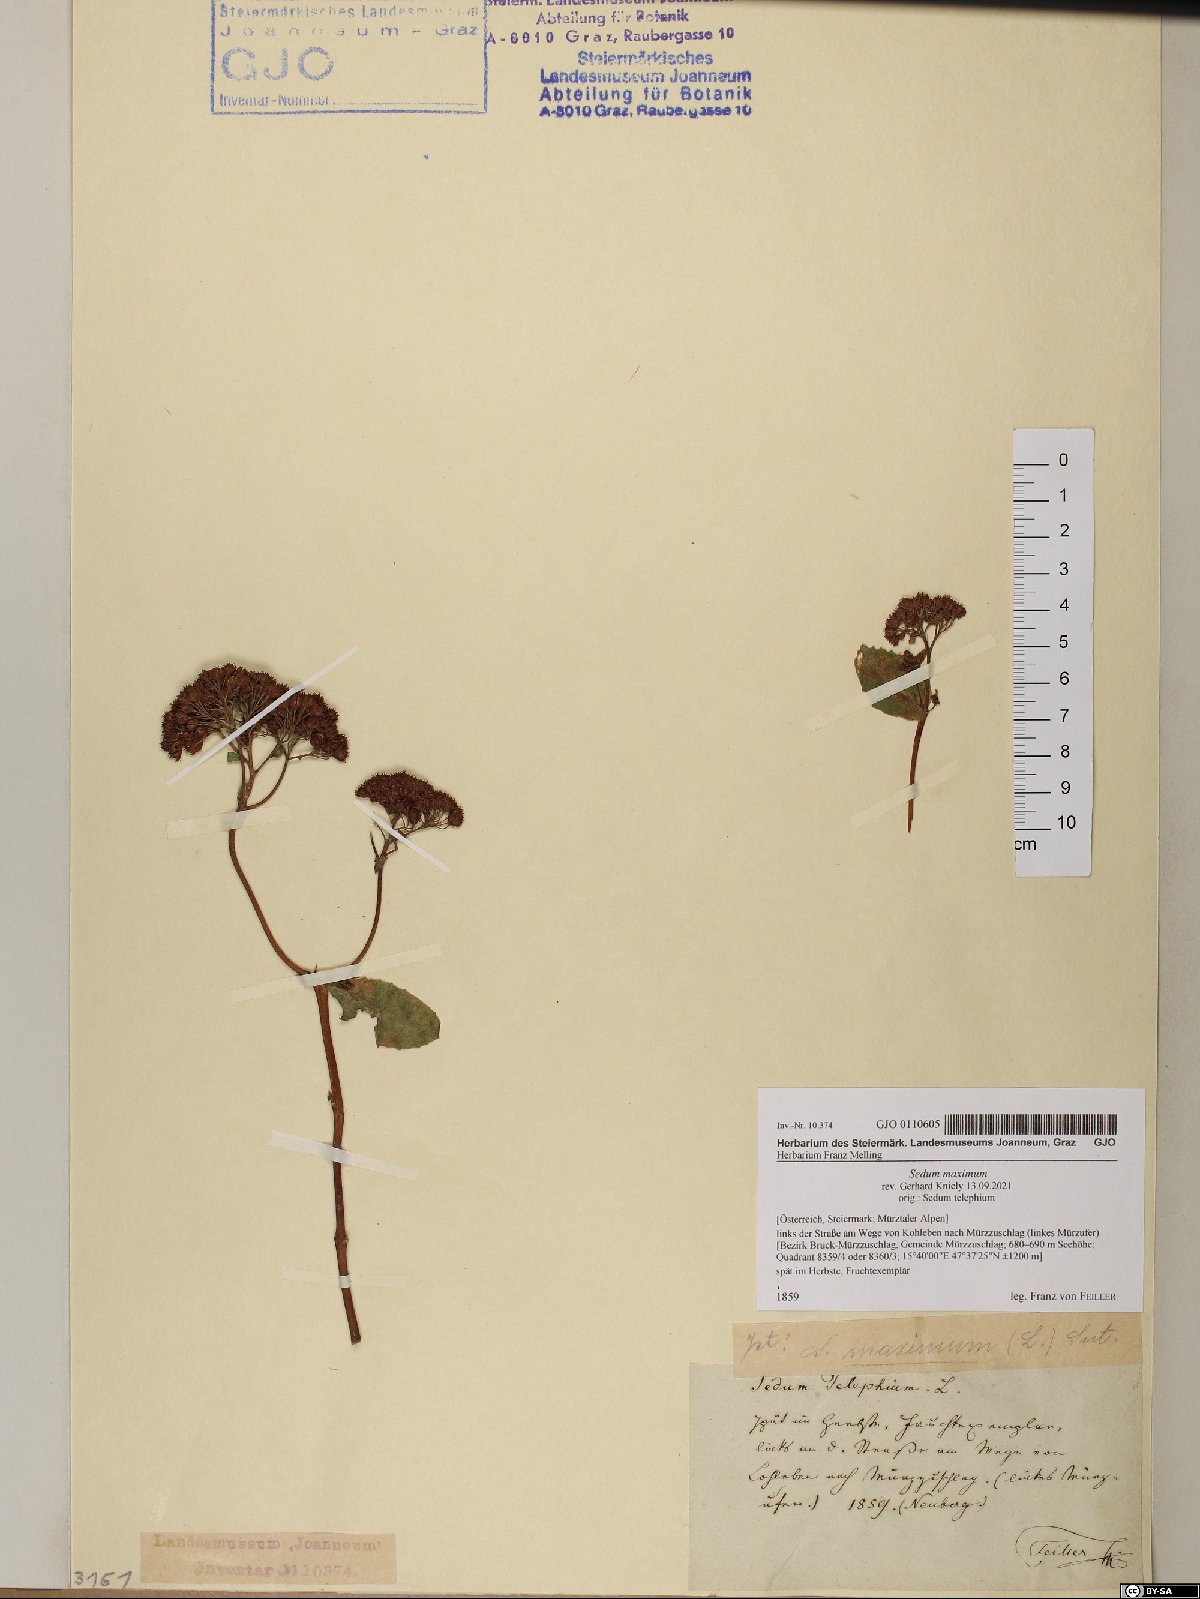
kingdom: Plantae
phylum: Tracheophyta
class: Magnoliopsida
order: Saxifragales
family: Crassulaceae
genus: Hylotelephium
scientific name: Hylotelephium maximum
